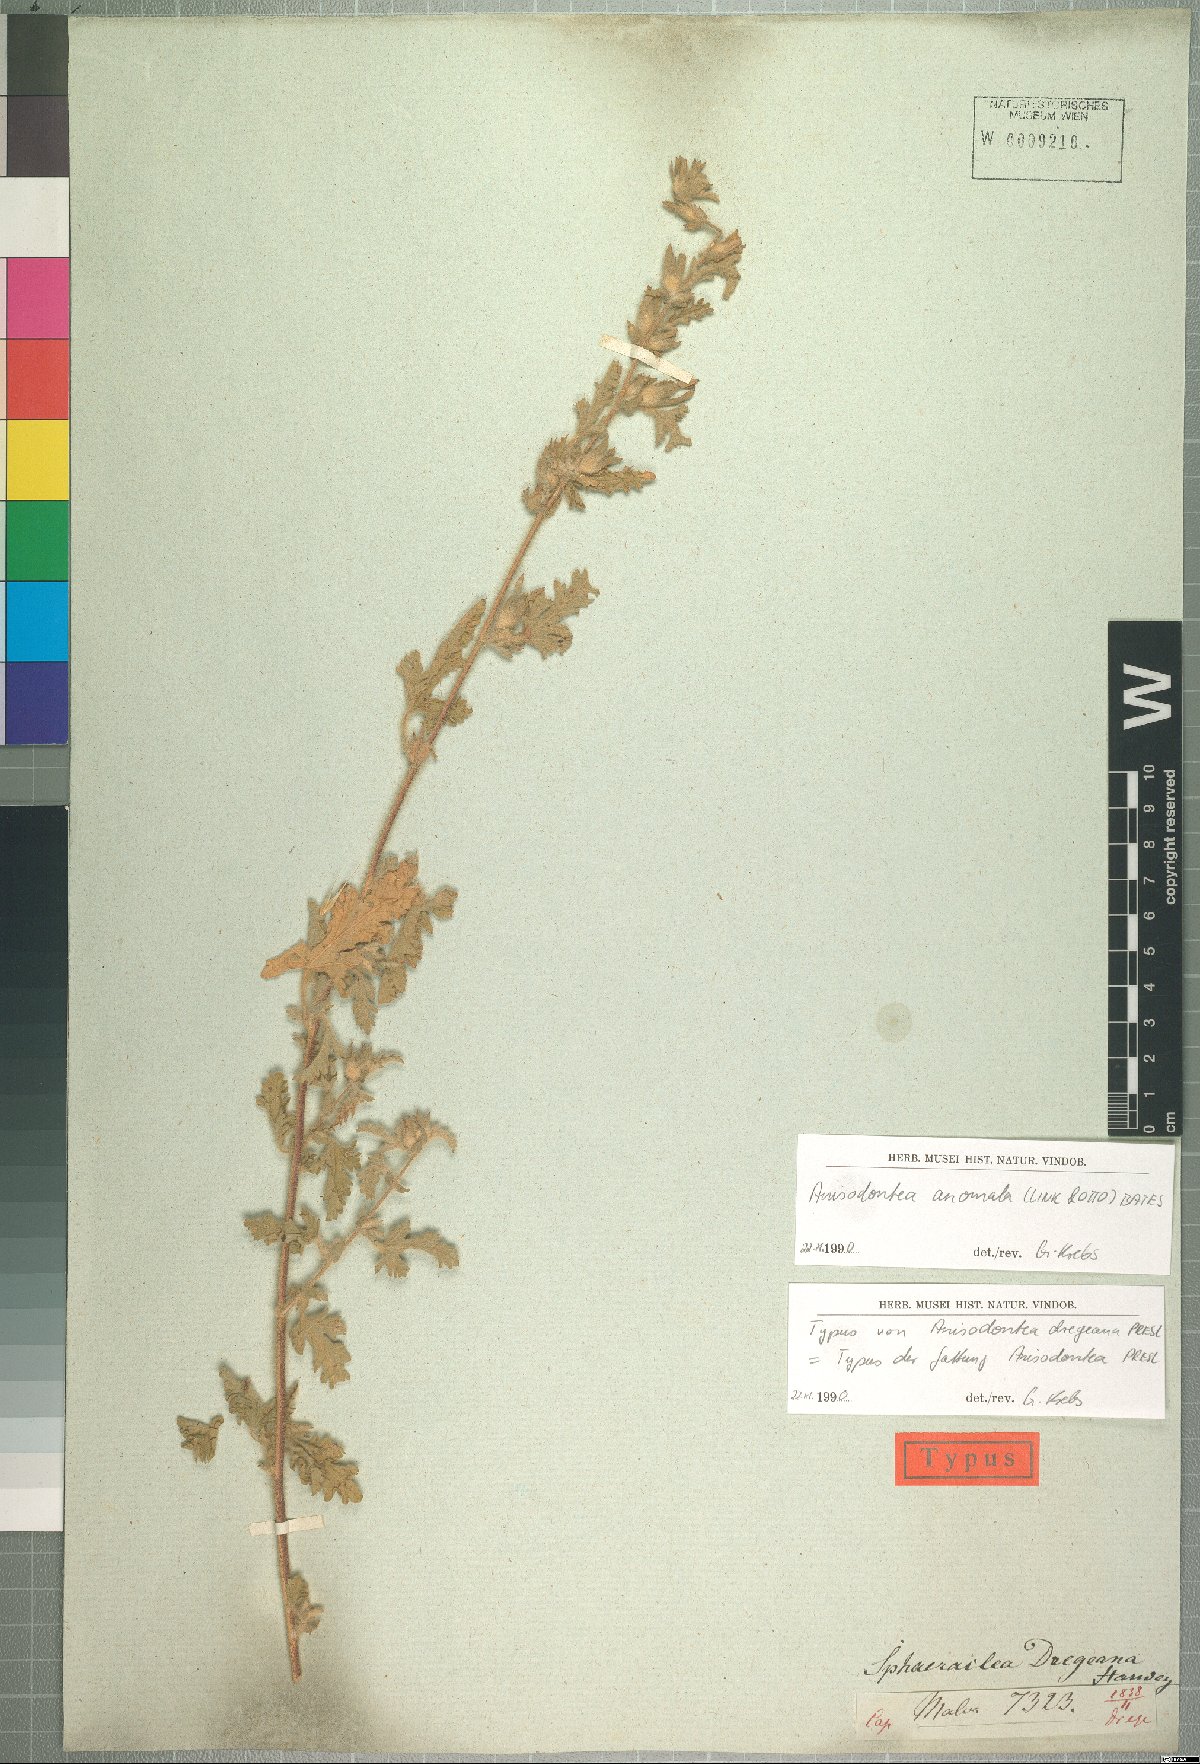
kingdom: Plantae
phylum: Tracheophyta
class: Magnoliopsida
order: Malvales
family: Malvaceae
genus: Anisodontea
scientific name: Anisodontea anomala
